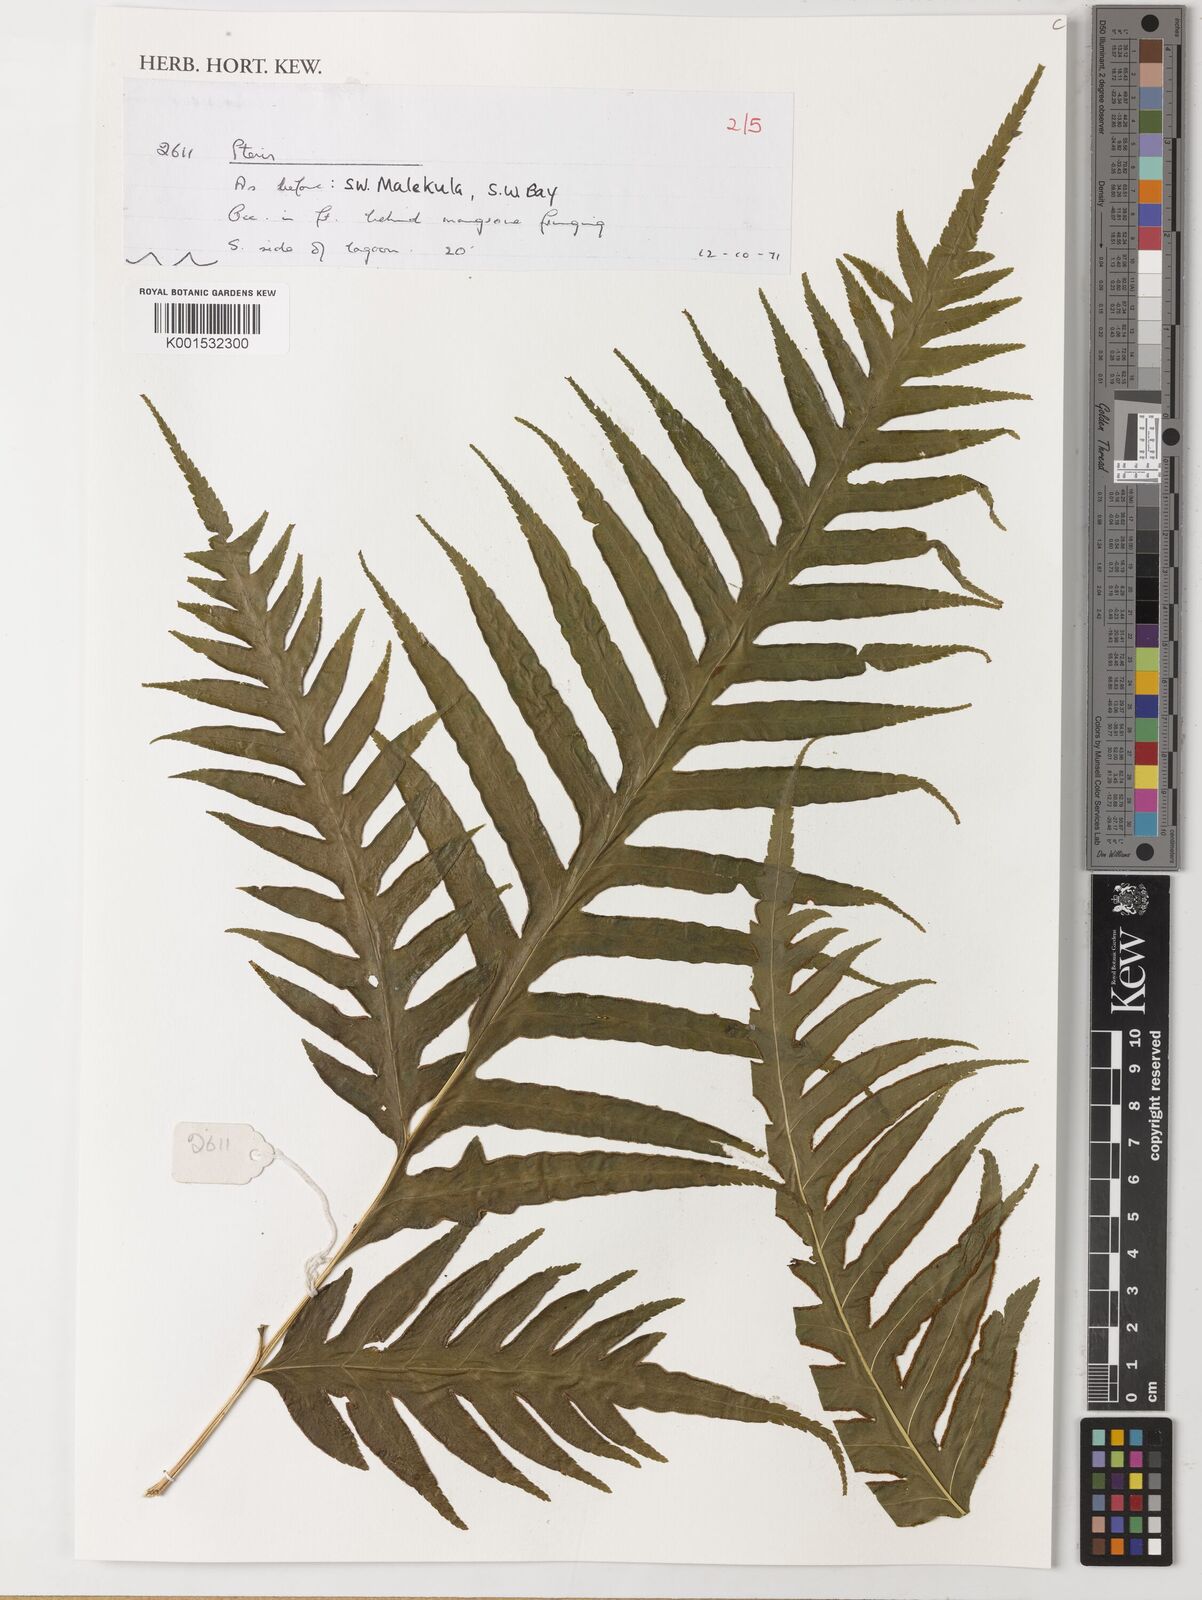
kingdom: Plantae
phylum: Tracheophyta
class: Polypodiopsida
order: Polypodiales
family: Pteridaceae
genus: Pteris
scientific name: Pteris
